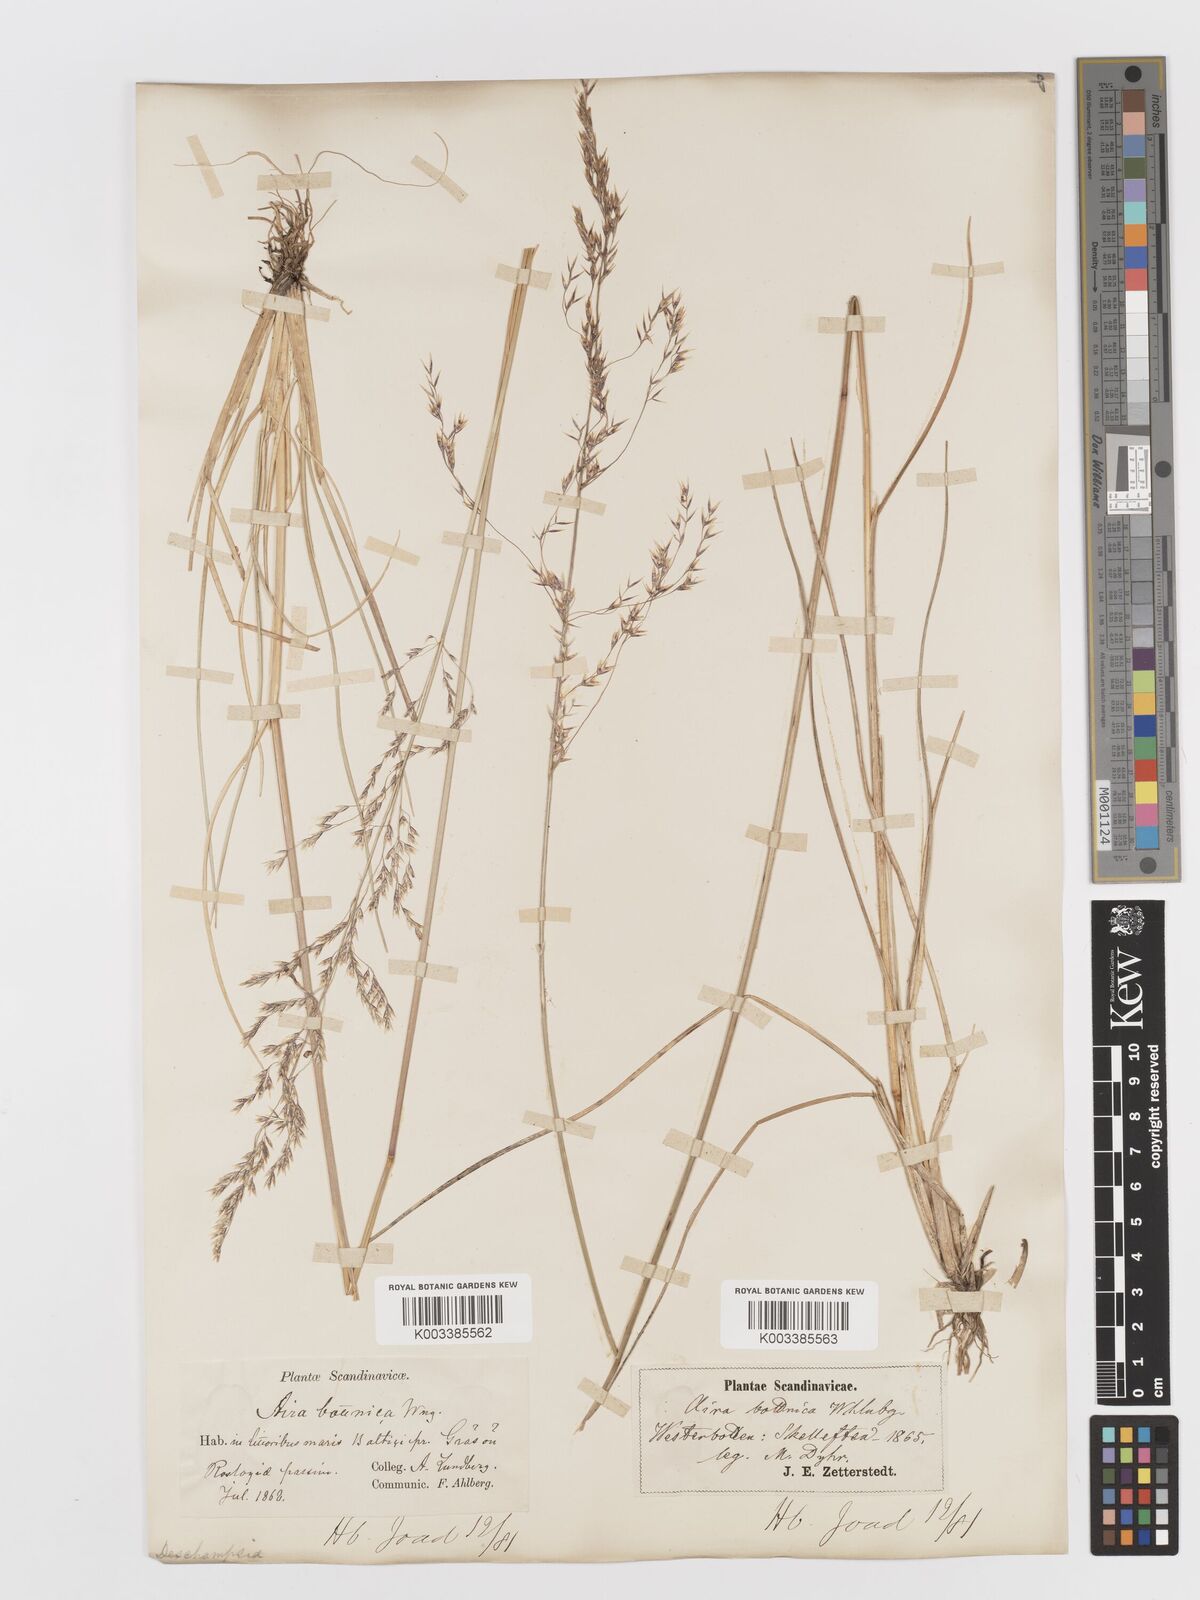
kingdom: Plantae
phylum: Tracheophyta
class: Liliopsida
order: Poales
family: Poaceae
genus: Deschampsia
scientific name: Deschampsia cespitosa
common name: Tufted hair-grass
